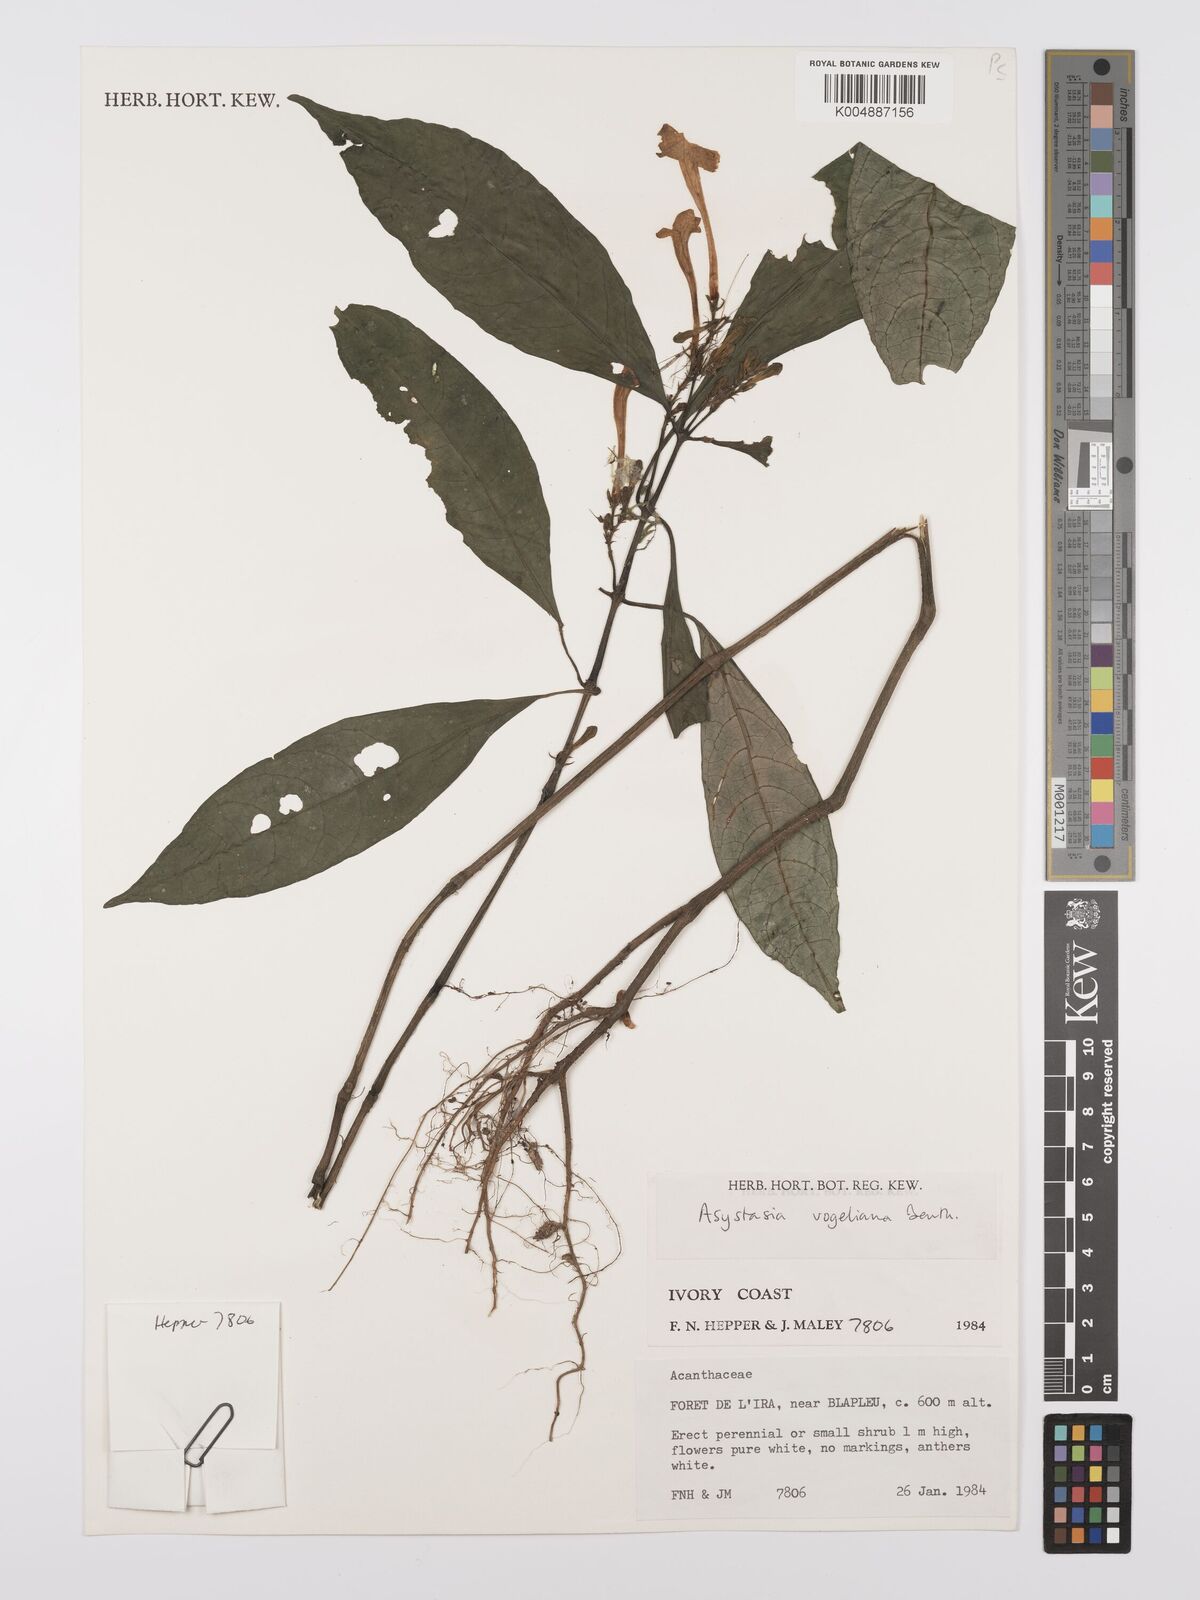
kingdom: Plantae
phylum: Tracheophyta
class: Magnoliopsida
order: Lamiales
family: Acanthaceae
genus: Asystasia
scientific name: Asystasia vogeliana
